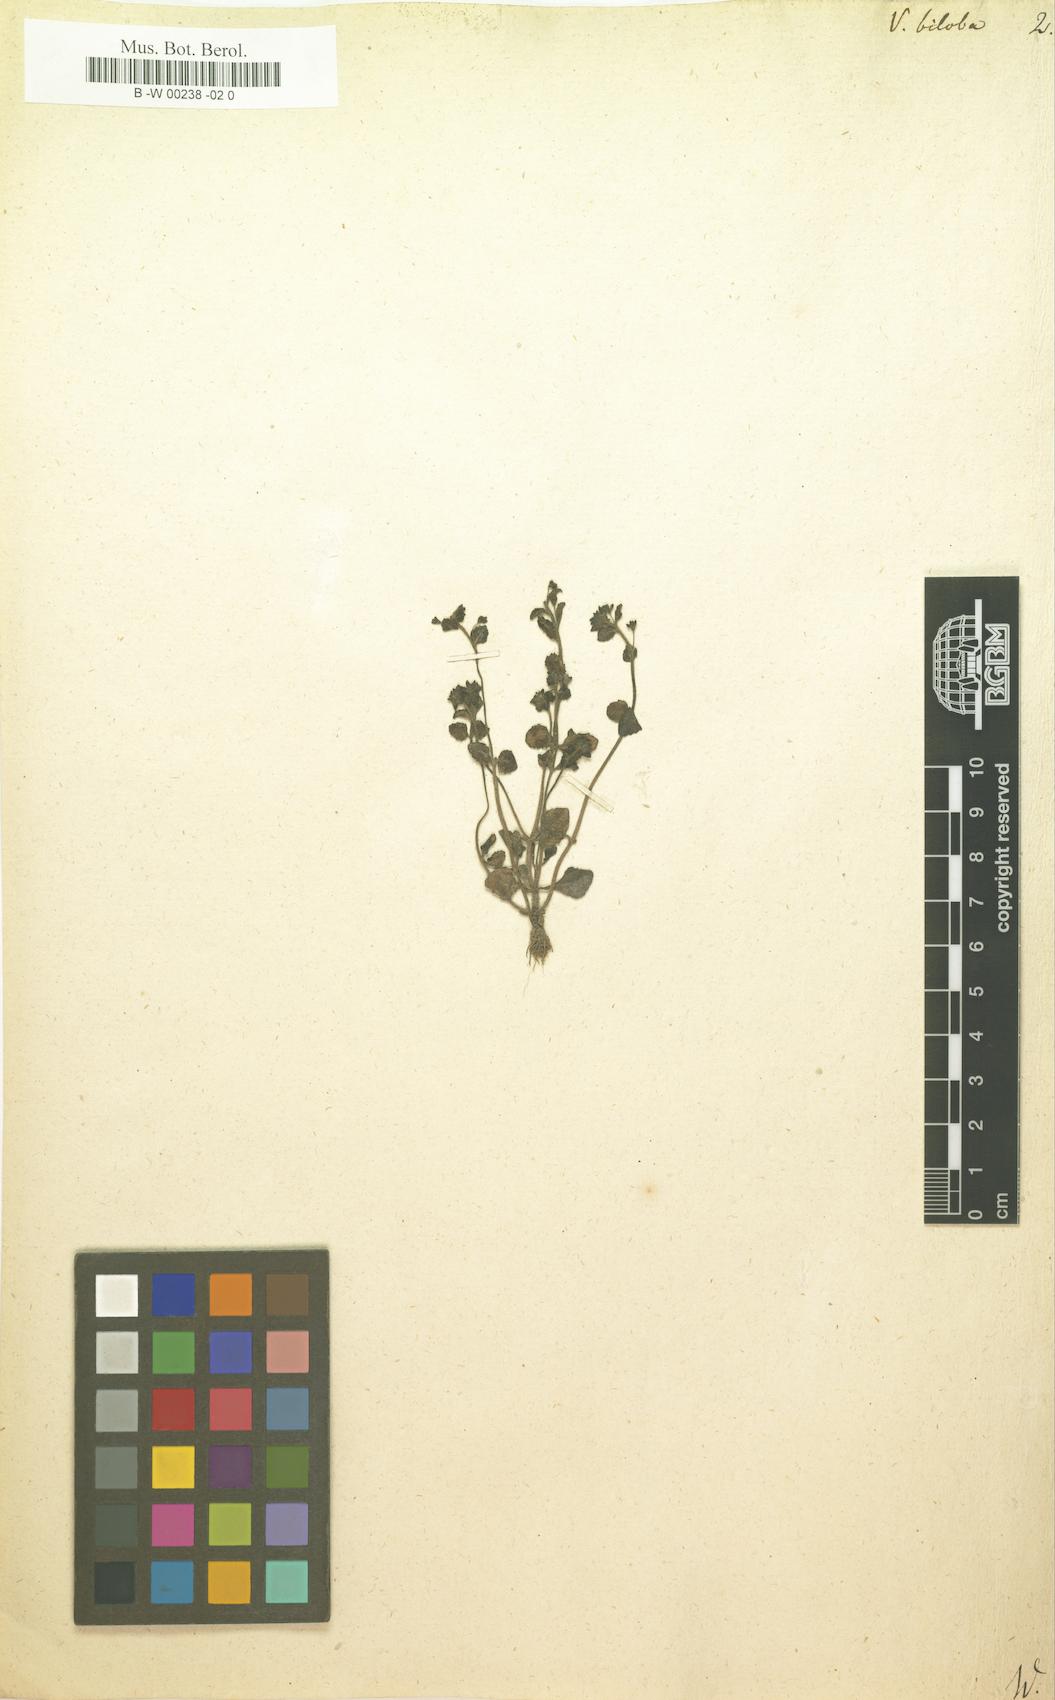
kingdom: Plantae
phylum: Tracheophyta
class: Magnoliopsida
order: Lamiales
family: Plantaginaceae
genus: Veronica
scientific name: Veronica biloba
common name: Twolobe speedwell
